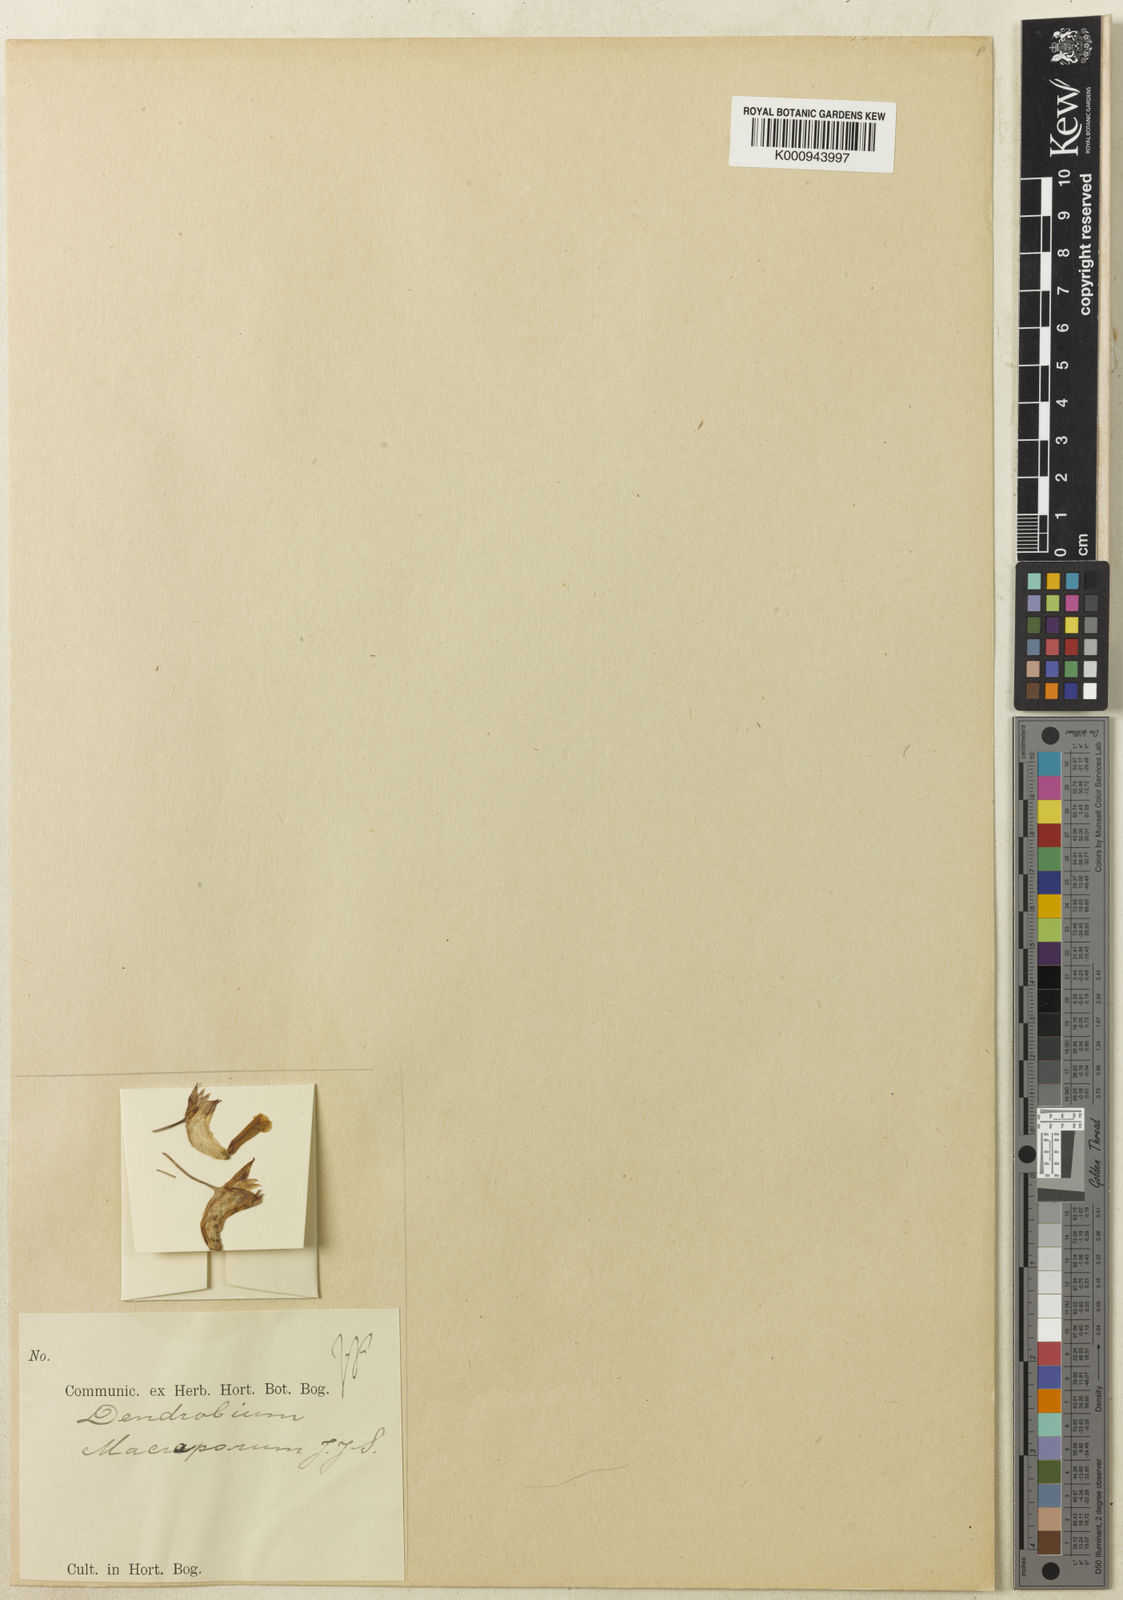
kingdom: Plantae
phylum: Tracheophyta
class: Liliopsida
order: Asparagales
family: Orchidaceae
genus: Dendrobium
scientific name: Dendrobium macraporum
